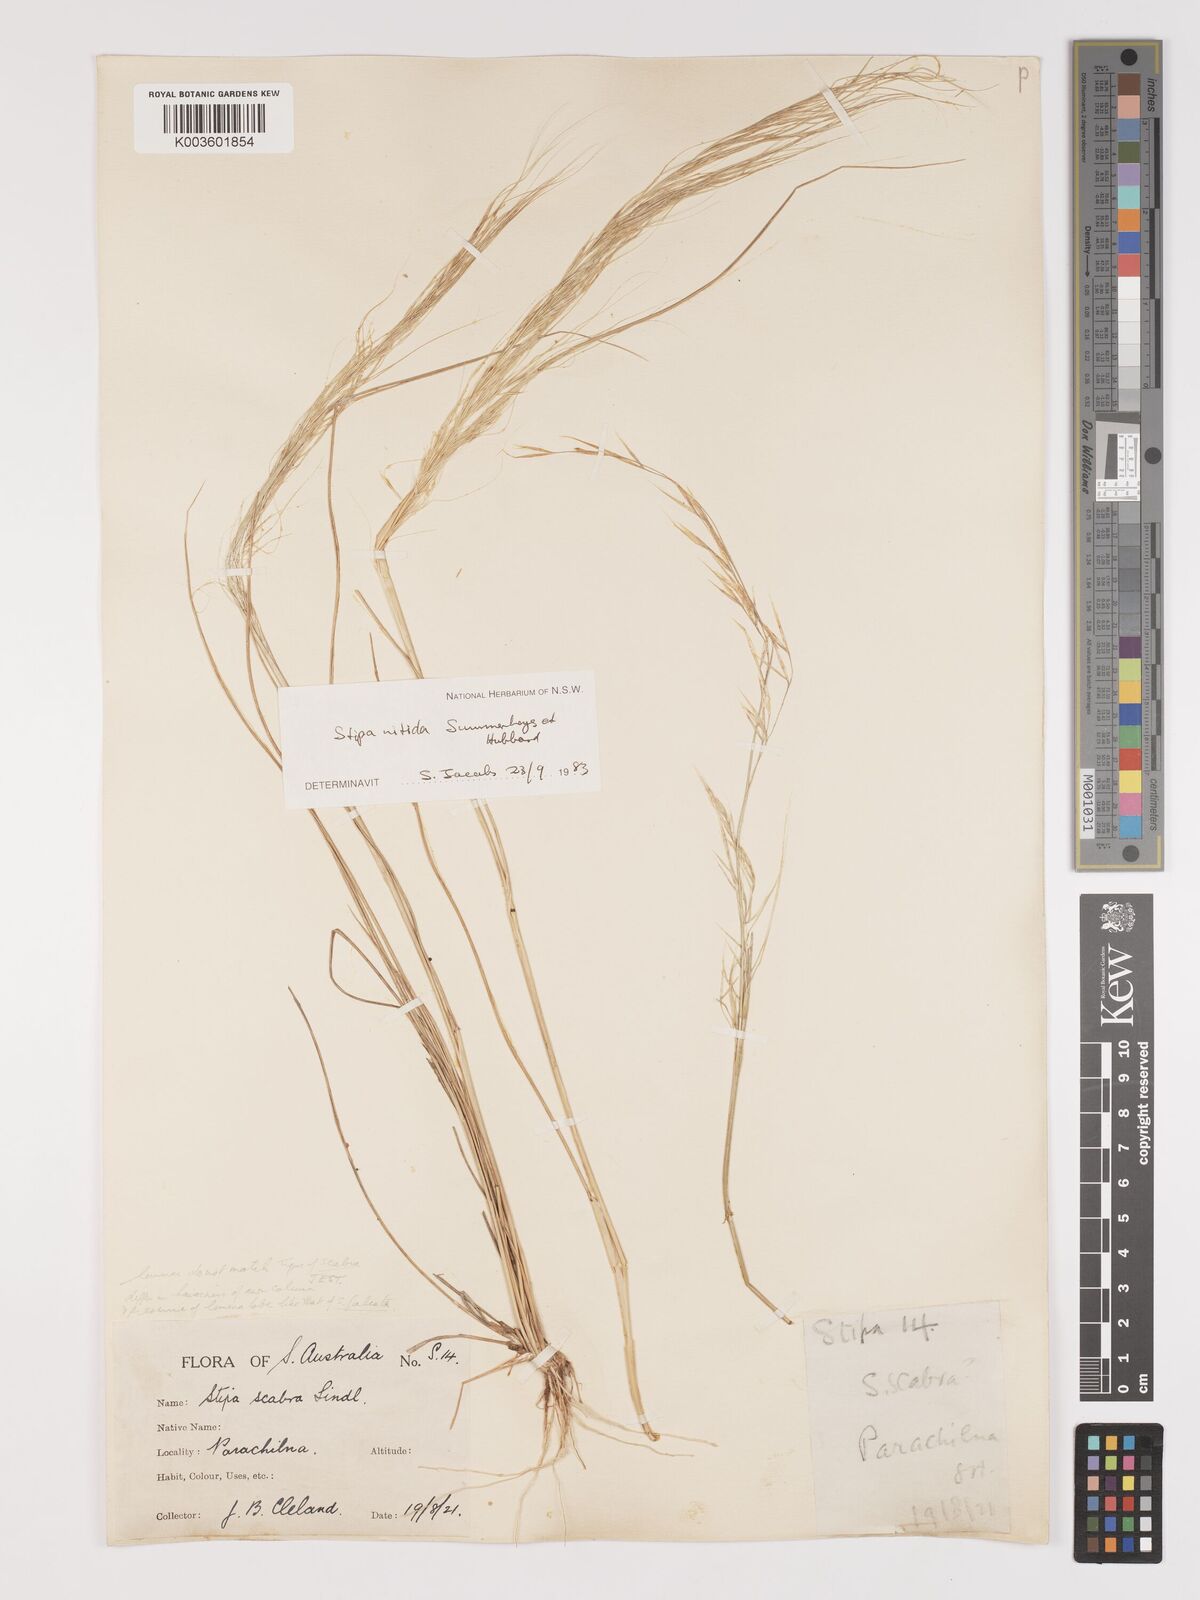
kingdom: Plantae
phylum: Tracheophyta
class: Liliopsida
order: Poales
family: Poaceae
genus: Austrostipa
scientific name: Austrostipa nitida
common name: Balcarra grass
